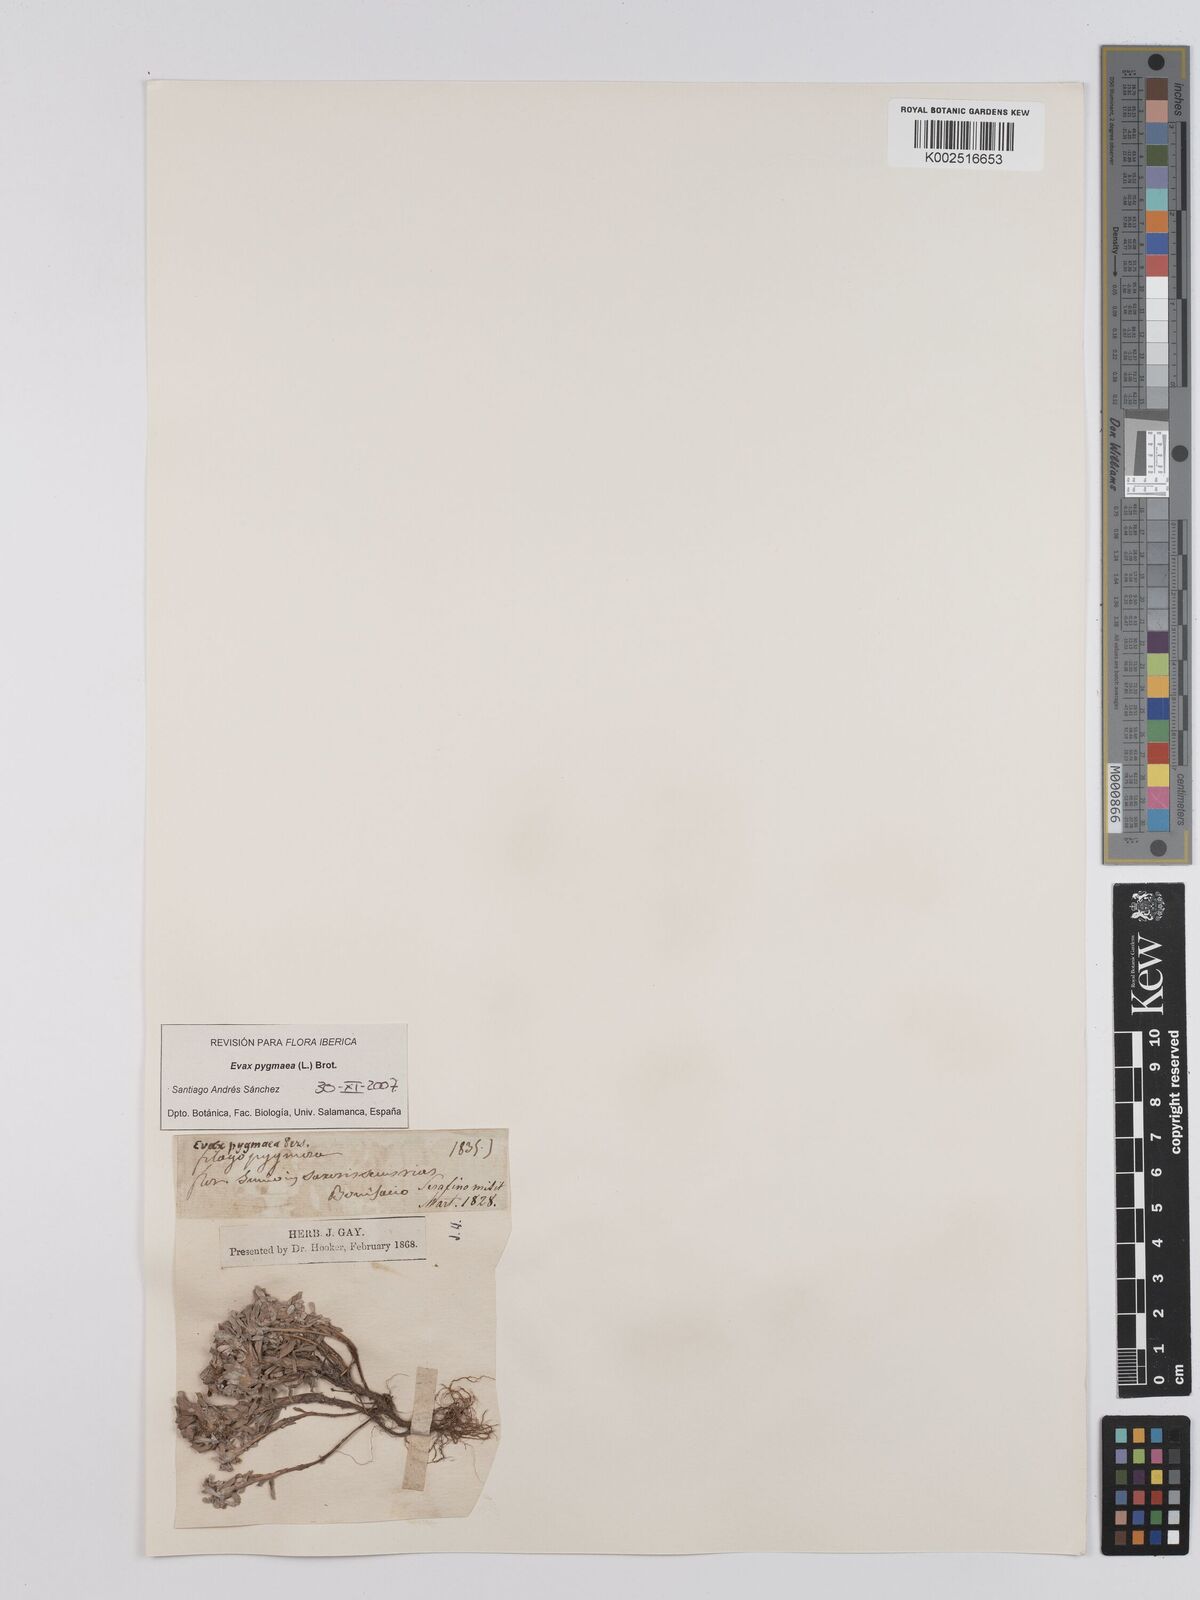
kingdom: Plantae
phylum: Tracheophyta
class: Magnoliopsida
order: Asterales
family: Asteraceae
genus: Filago
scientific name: Filago pygmaea
